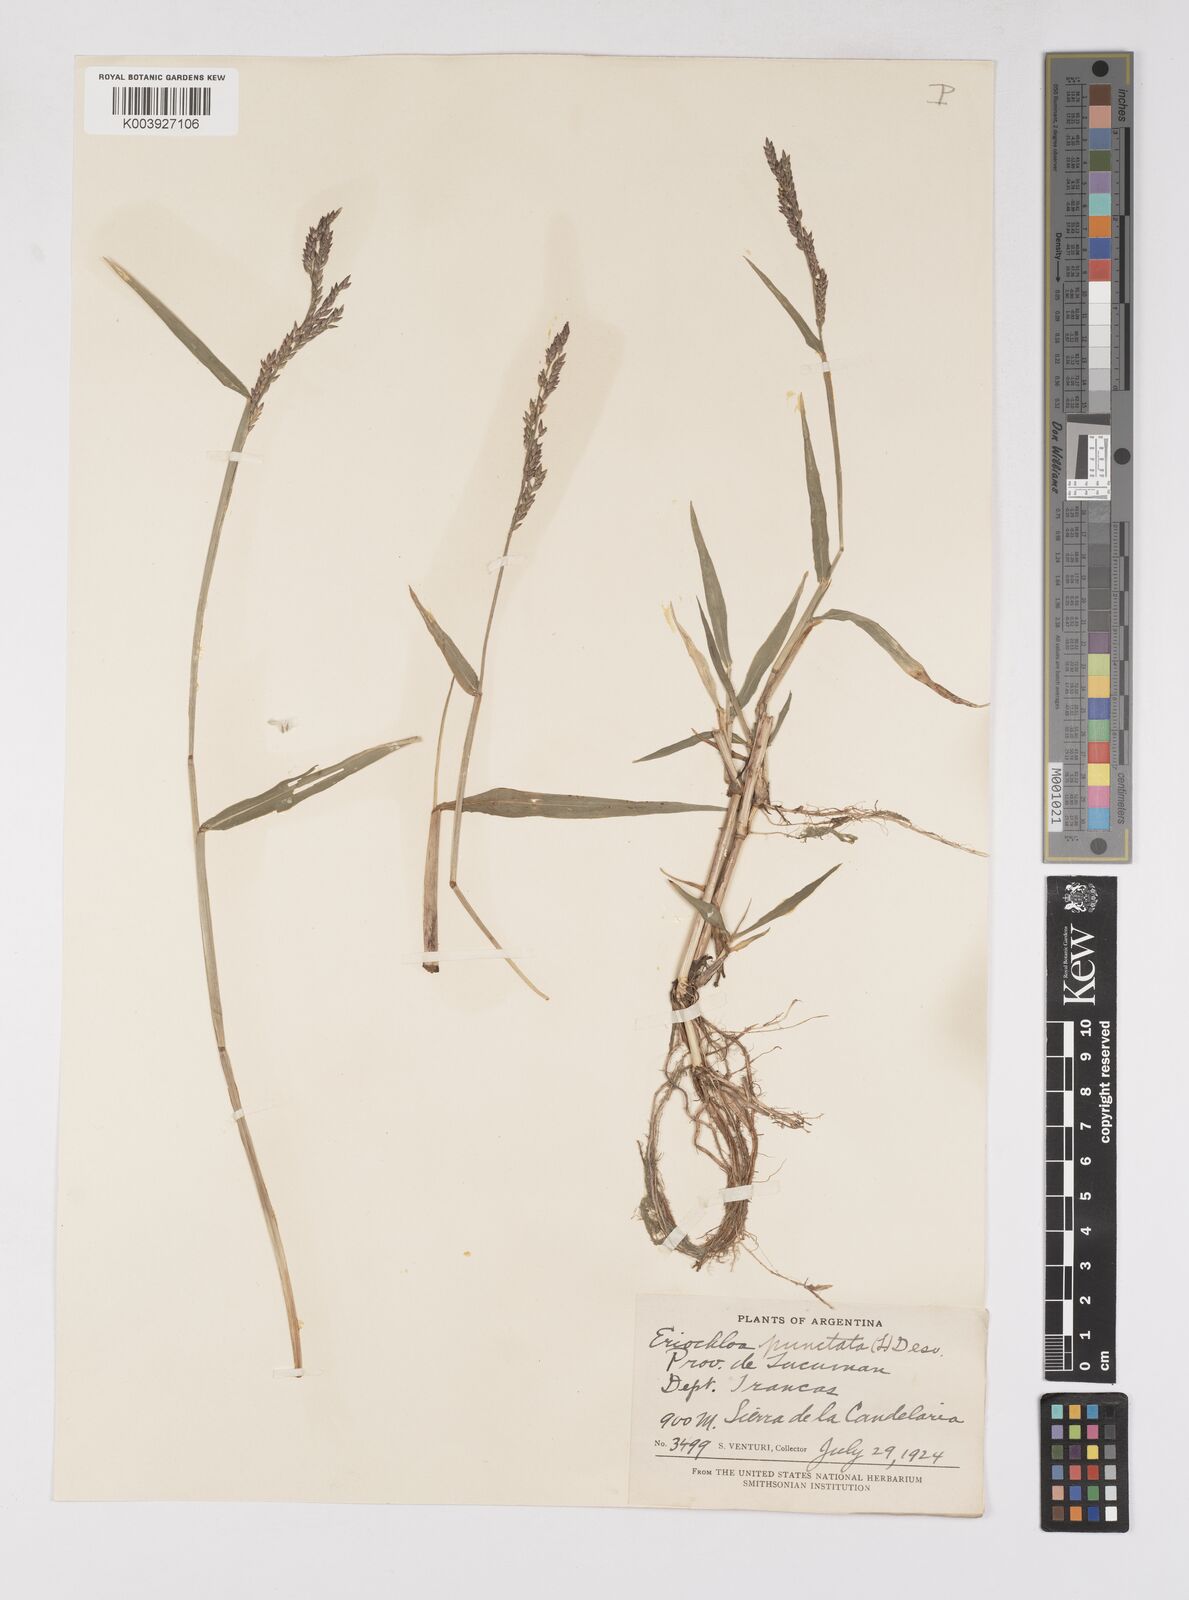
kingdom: Plantae
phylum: Tracheophyta
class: Liliopsida
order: Poales
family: Poaceae
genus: Eriochloa
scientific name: Eriochloa punctata
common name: Louisiana cupgrass
